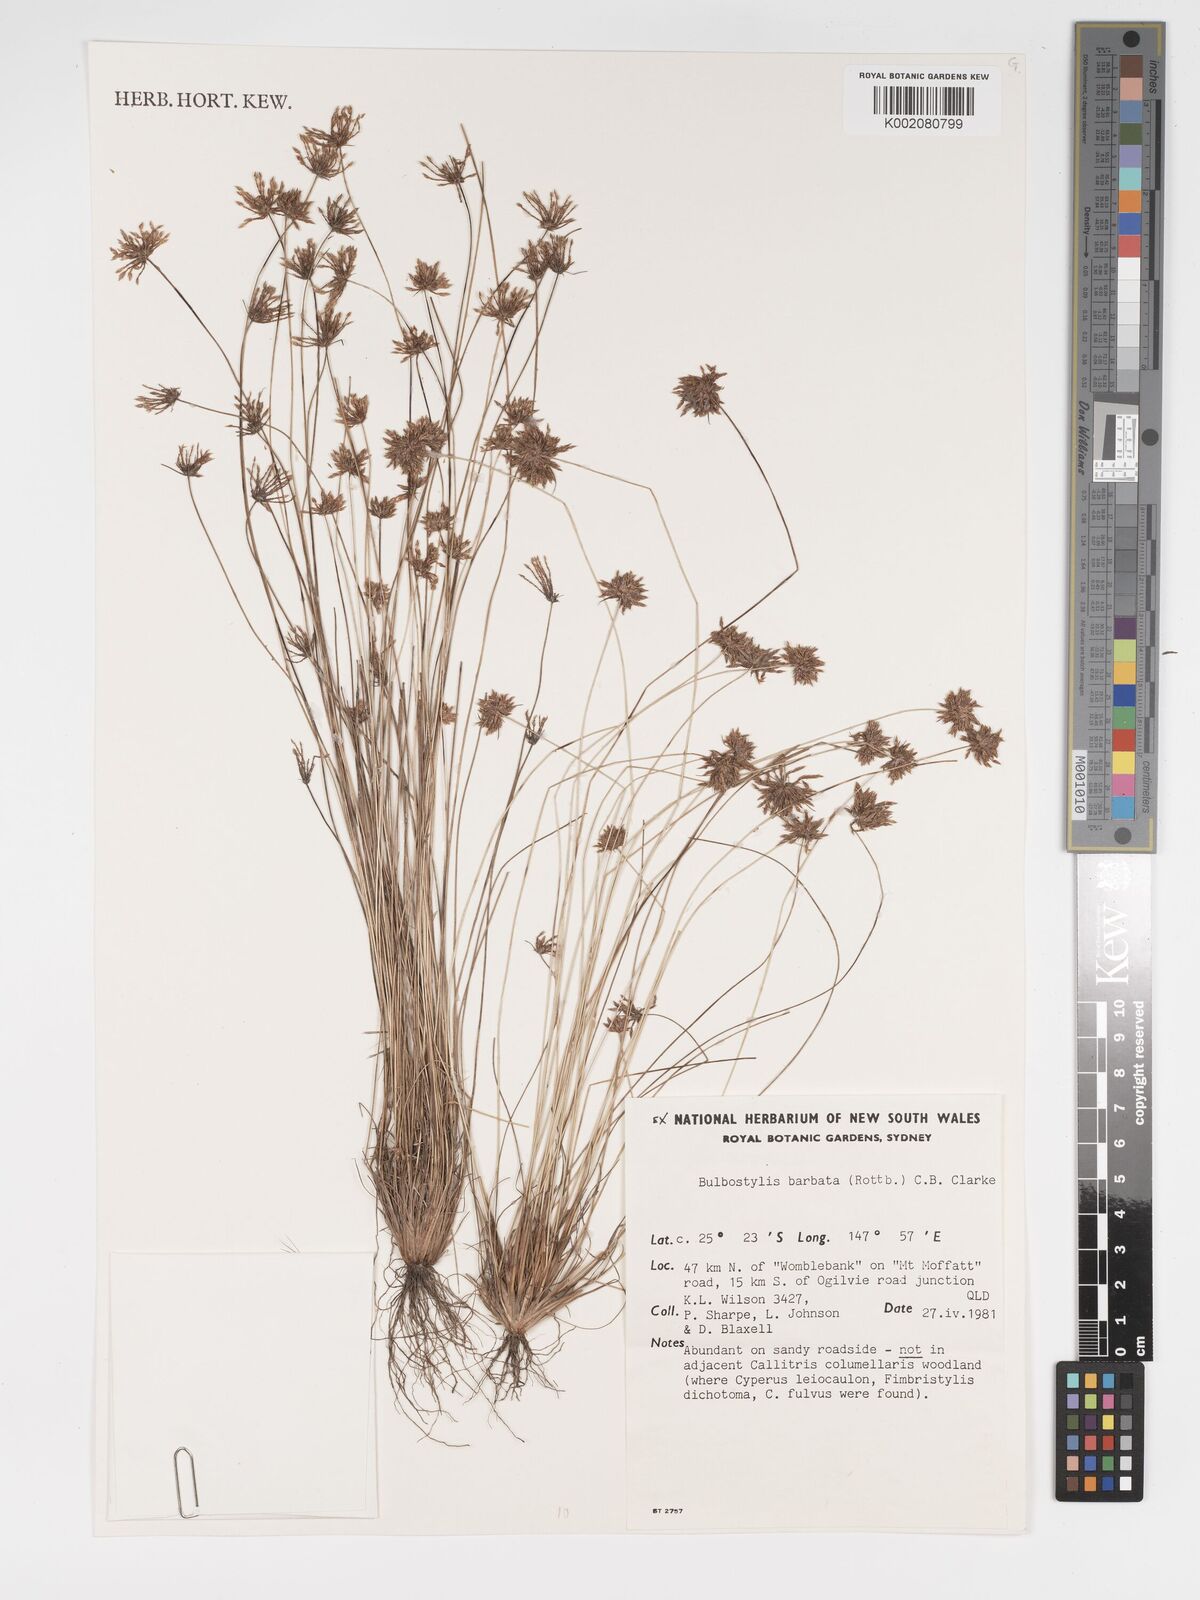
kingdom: Plantae
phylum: Tracheophyta
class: Liliopsida
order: Poales
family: Cyperaceae
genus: Bulbostylis
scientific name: Bulbostylis barbata
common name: Watergrass
